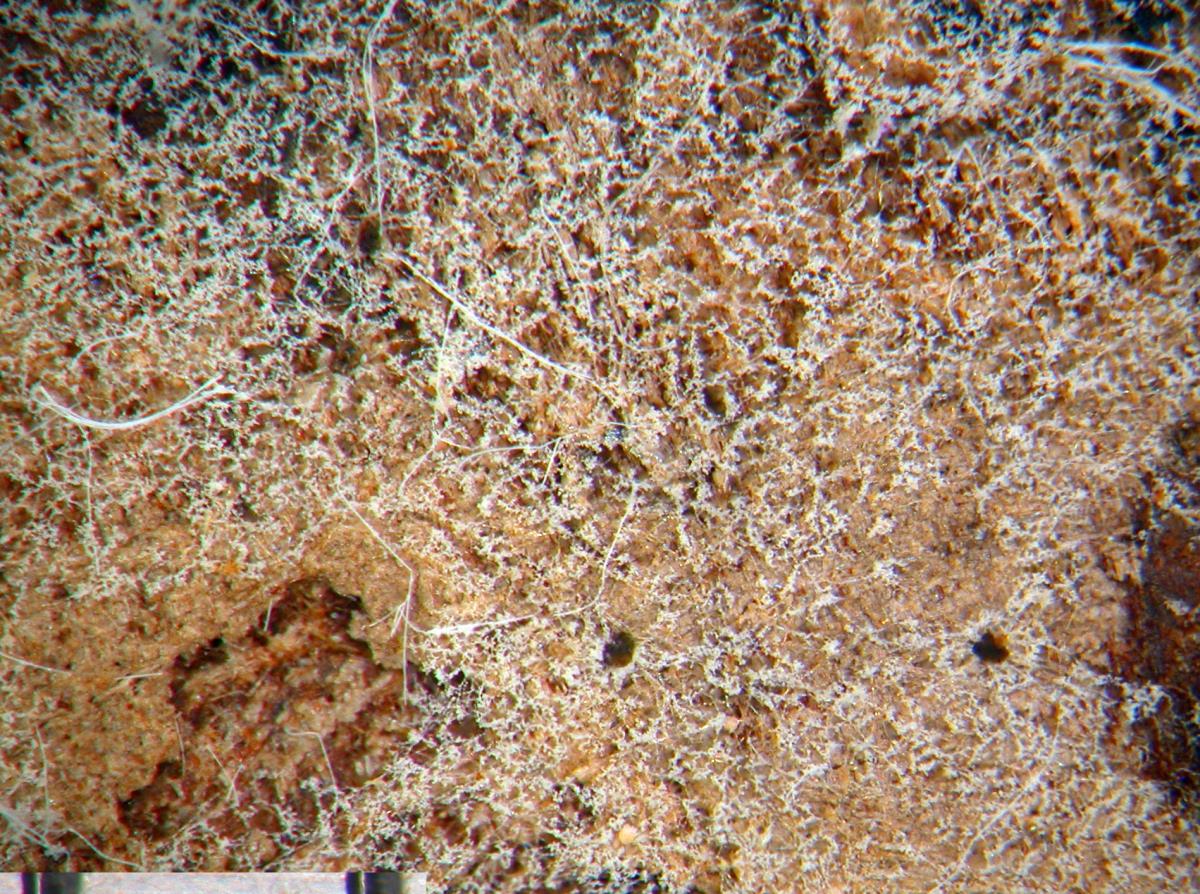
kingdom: Fungi
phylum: Basidiomycota
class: Agaricomycetes
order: Cantharellales
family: Botryobasidiaceae
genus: Botryobasidium
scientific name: Botryobasidium obtusisporum
